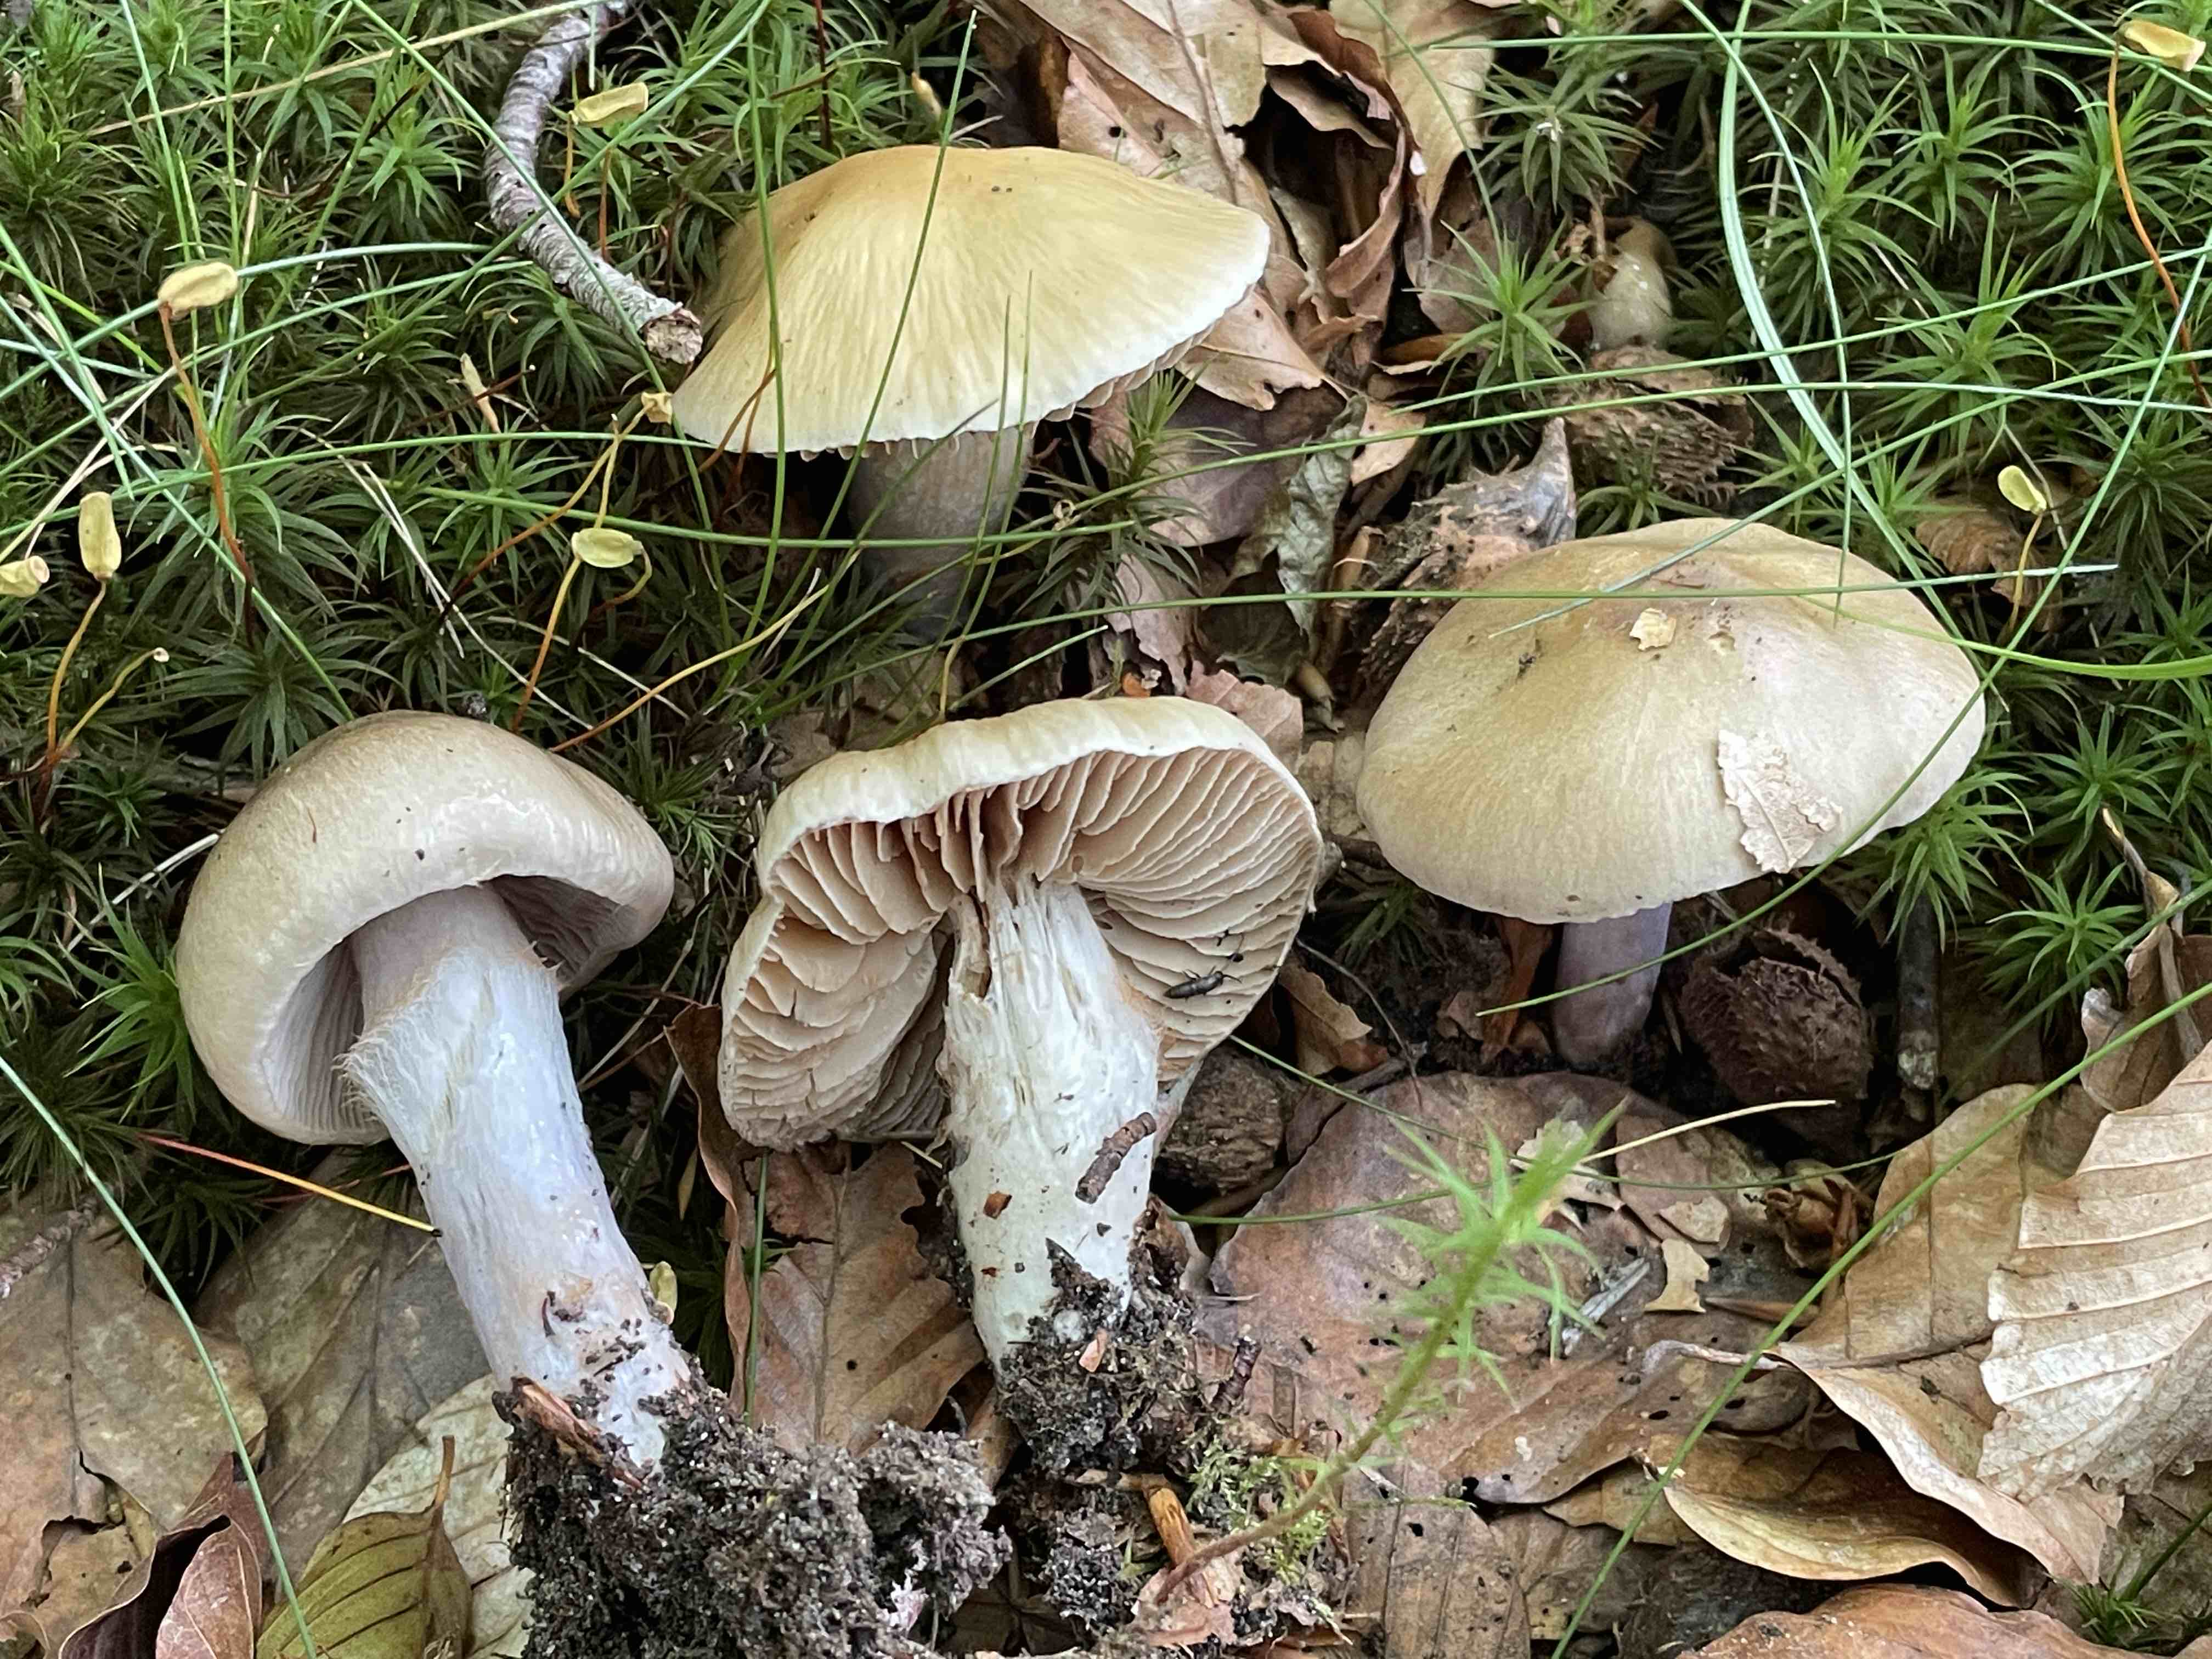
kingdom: Fungi
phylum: Basidiomycota
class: Agaricomycetes
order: Agaricales
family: Cortinariaceae
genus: Cortinarius
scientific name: Cortinarius elatior
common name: høj slørhat
